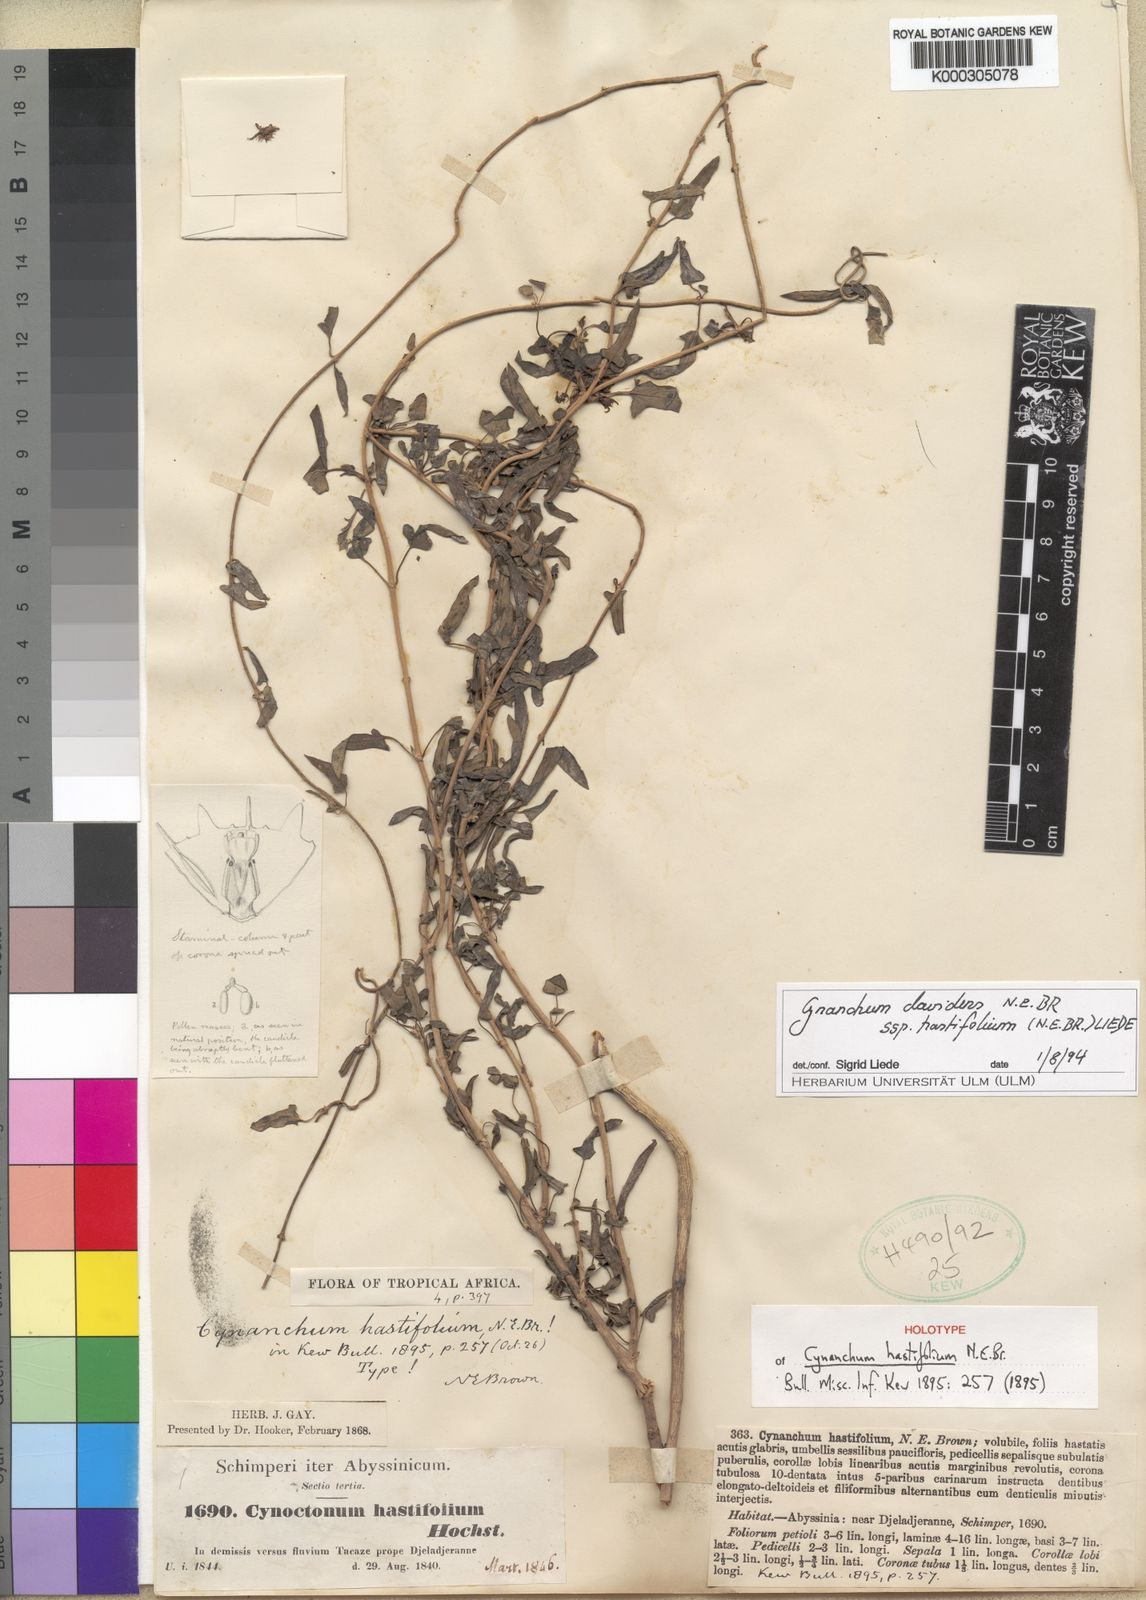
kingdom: Plantae
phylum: Tracheophyta
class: Magnoliopsida
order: Gentianales
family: Apocynaceae
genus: Cynanchum
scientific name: Cynanchum hastifolium
